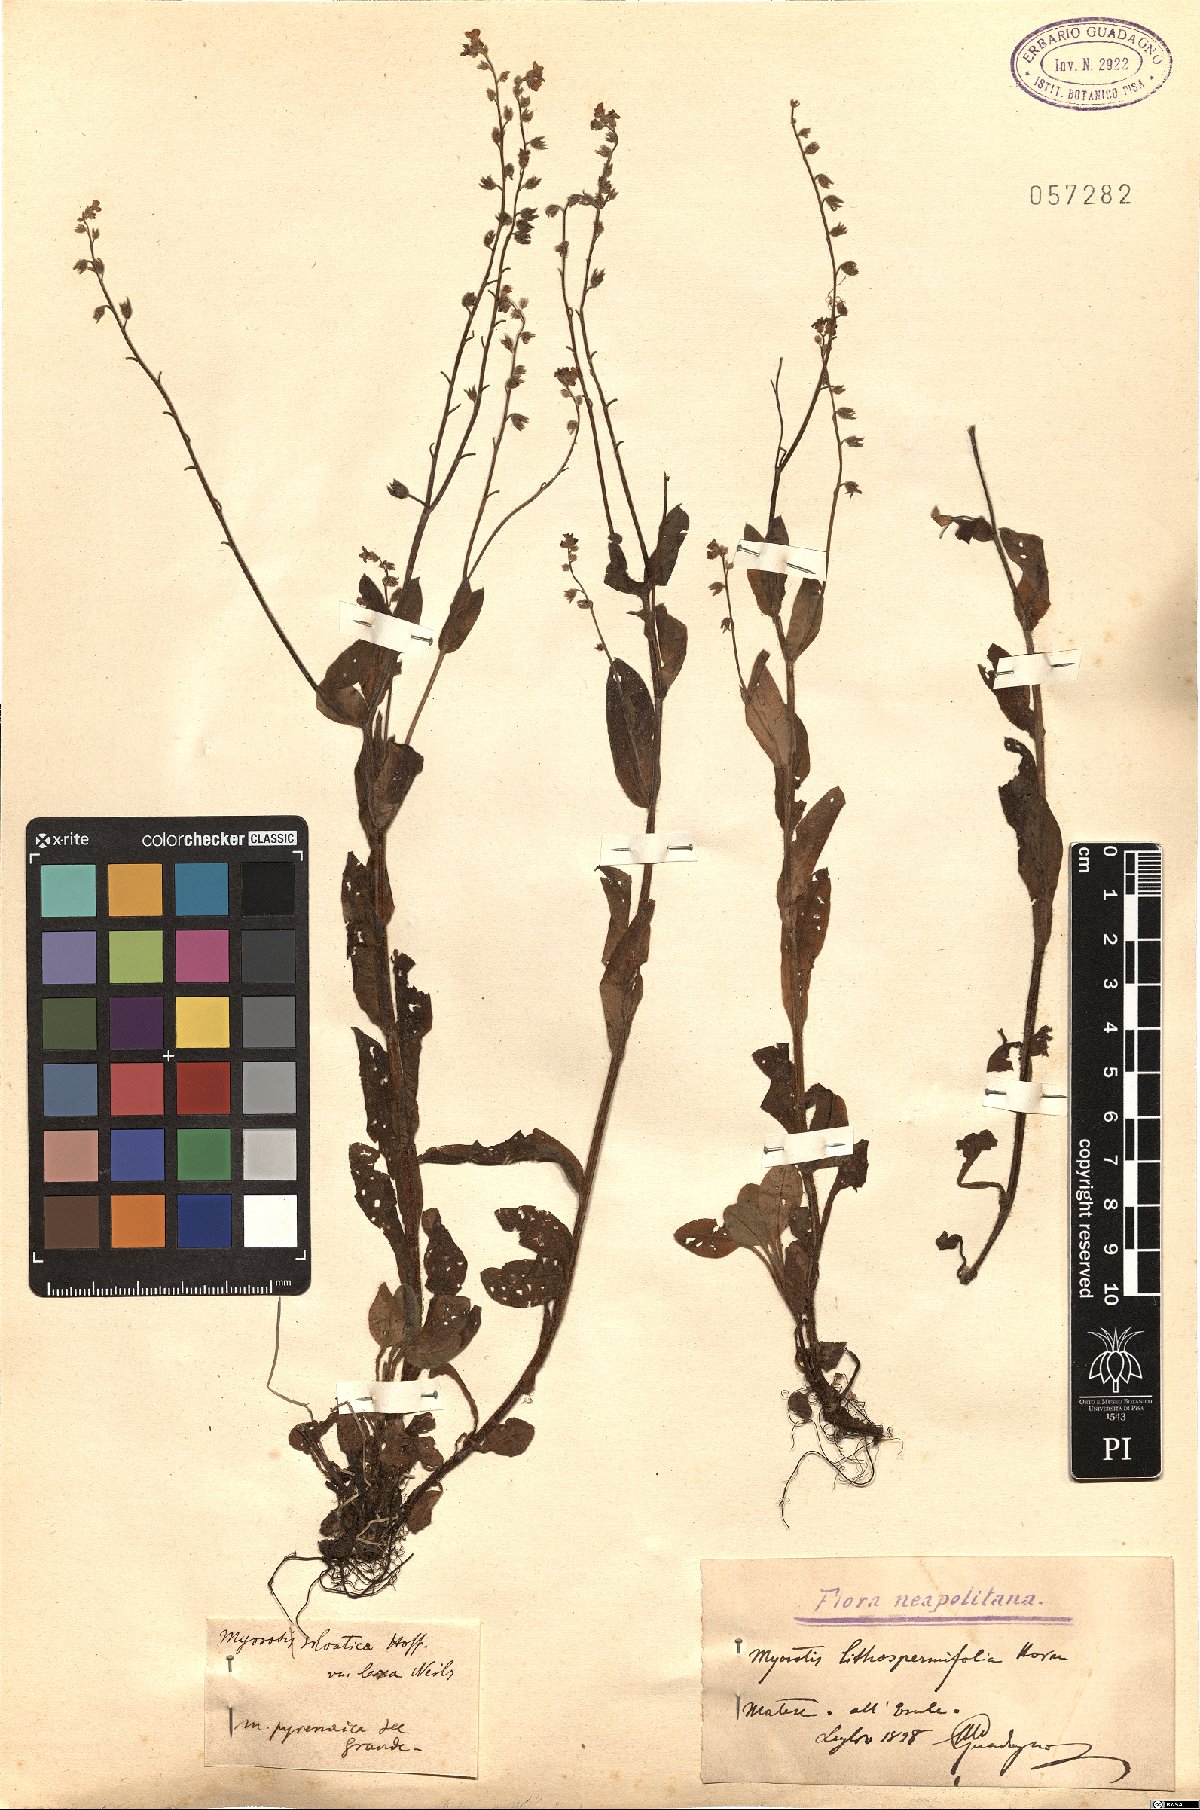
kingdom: Plantae
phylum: Tracheophyta
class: Magnoliopsida
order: Boraginales
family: Boraginaceae
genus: Myosotis
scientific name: Myosotis alpestris
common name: Alpine forget-me-not
